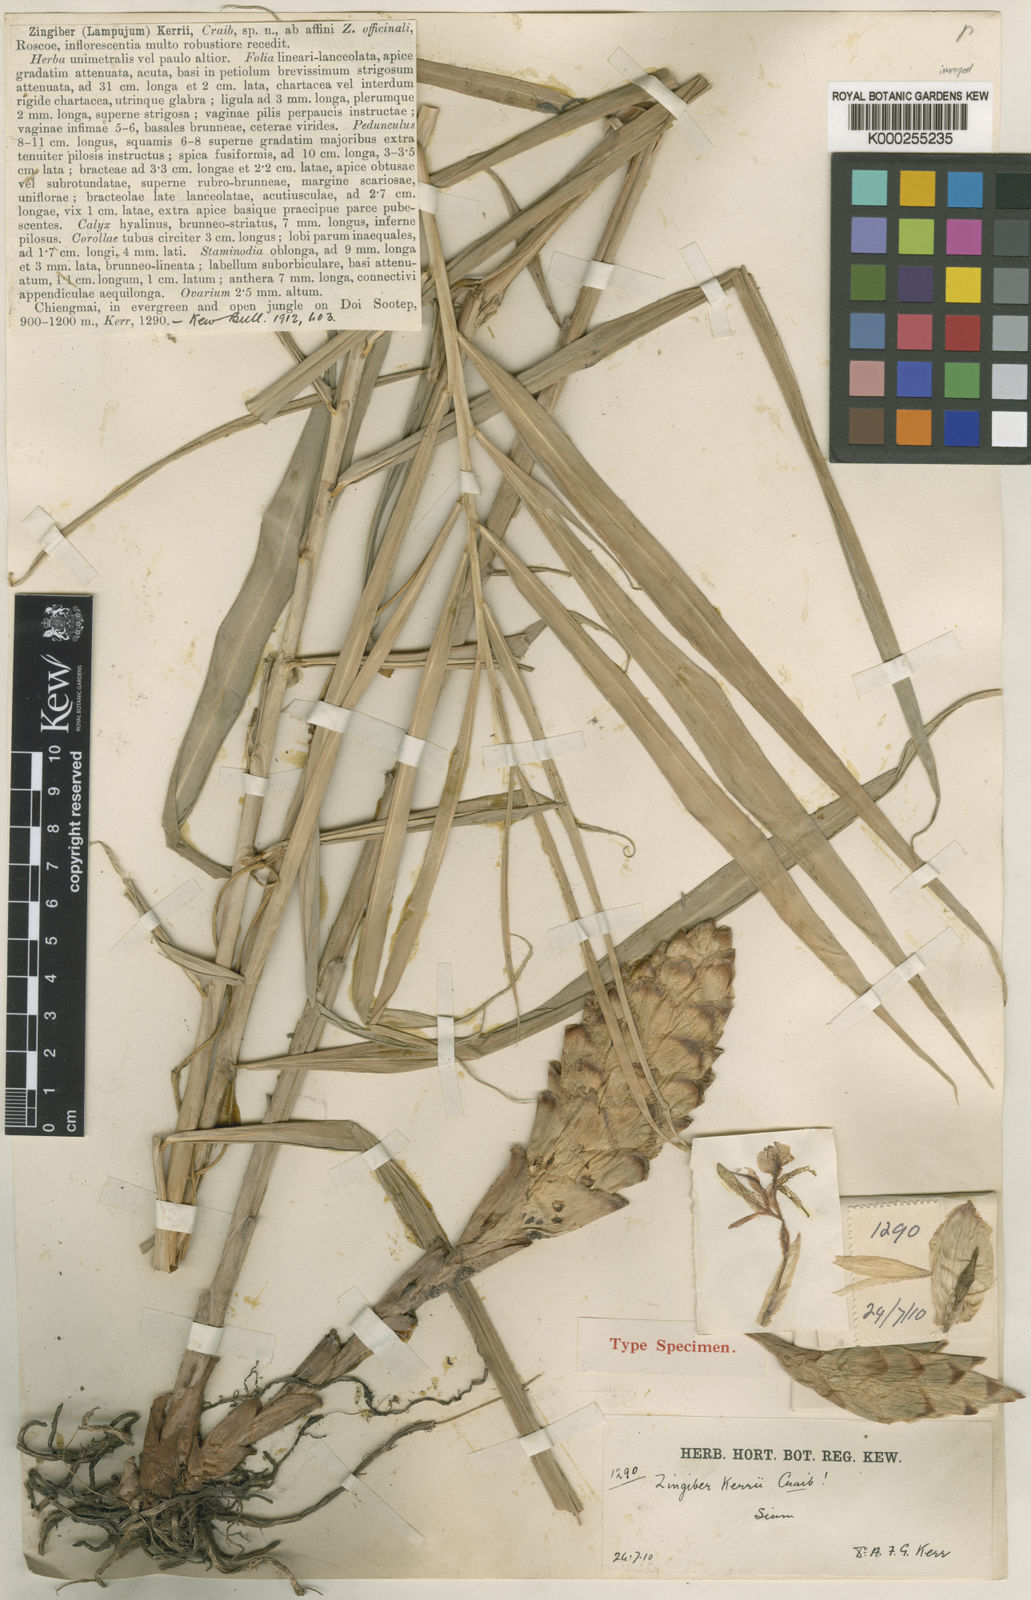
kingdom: Plantae
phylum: Tracheophyta
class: Liliopsida
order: Zingiberales
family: Zingiberaceae
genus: Zingiber
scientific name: Zingiber kerrii
